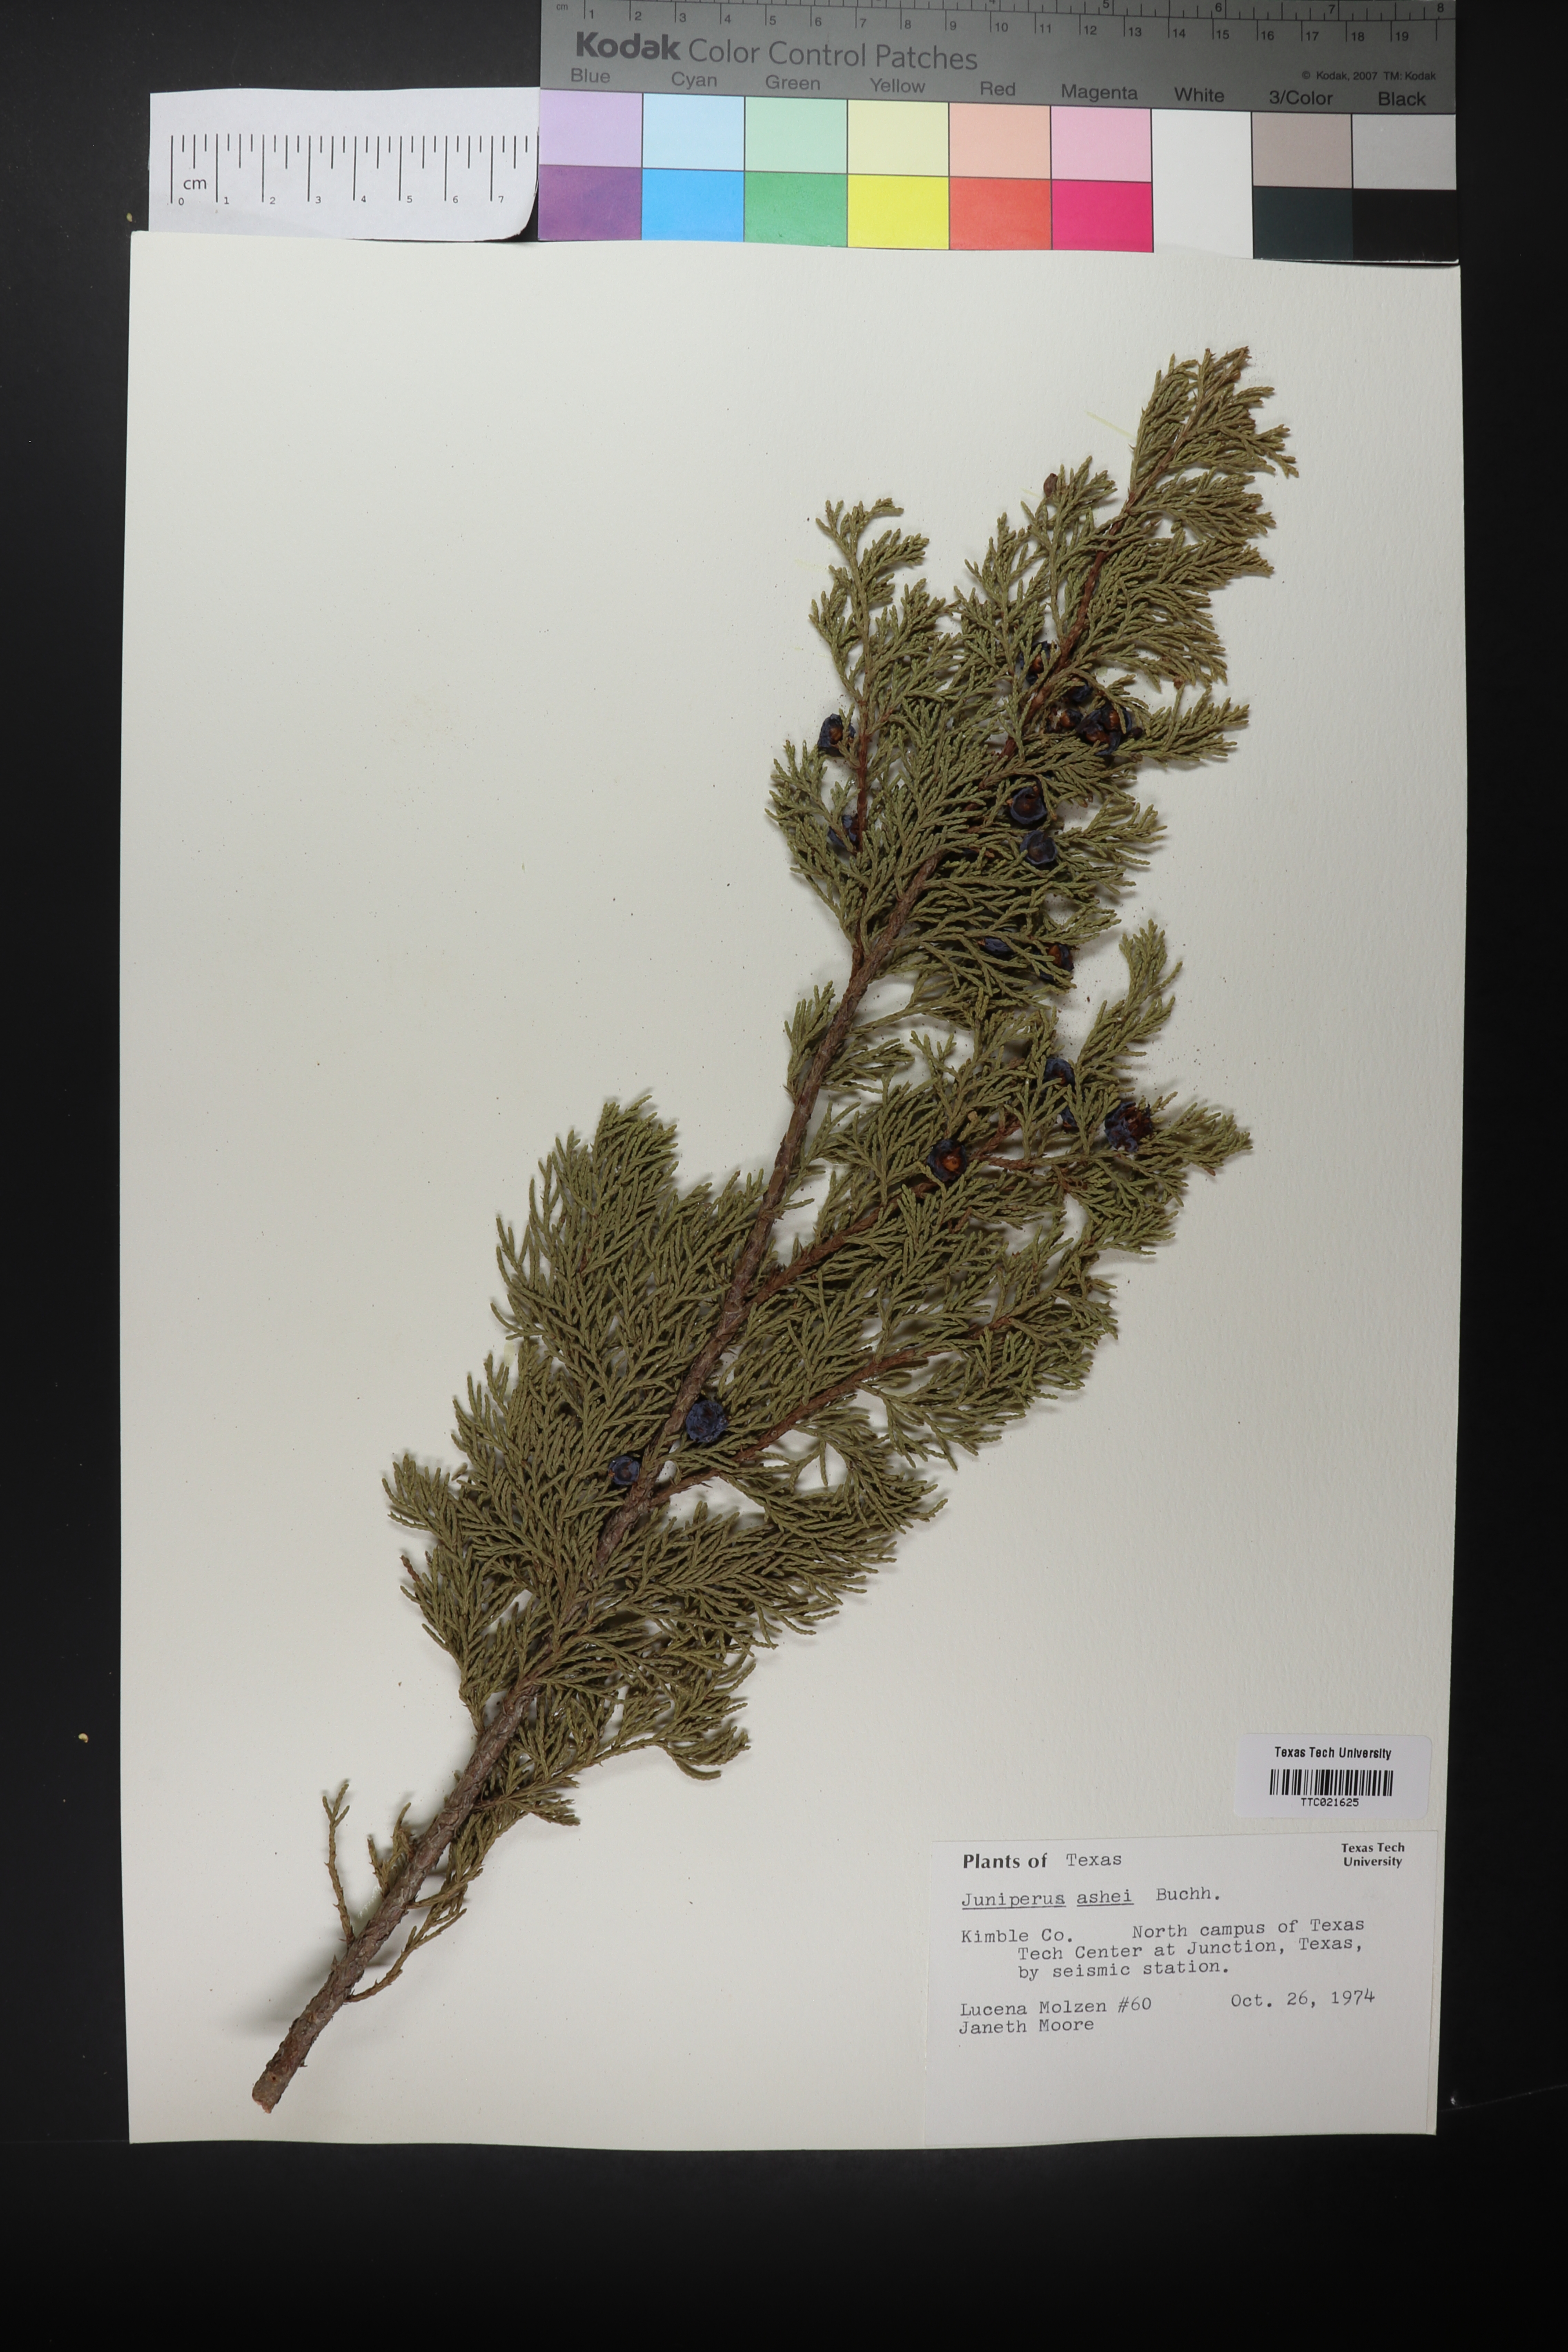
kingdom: Plantae
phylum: Tracheophyta
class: Pinopsida
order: Pinales
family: Cupressaceae
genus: Juniperus
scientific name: Juniperus ashei
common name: Mexican juniper
